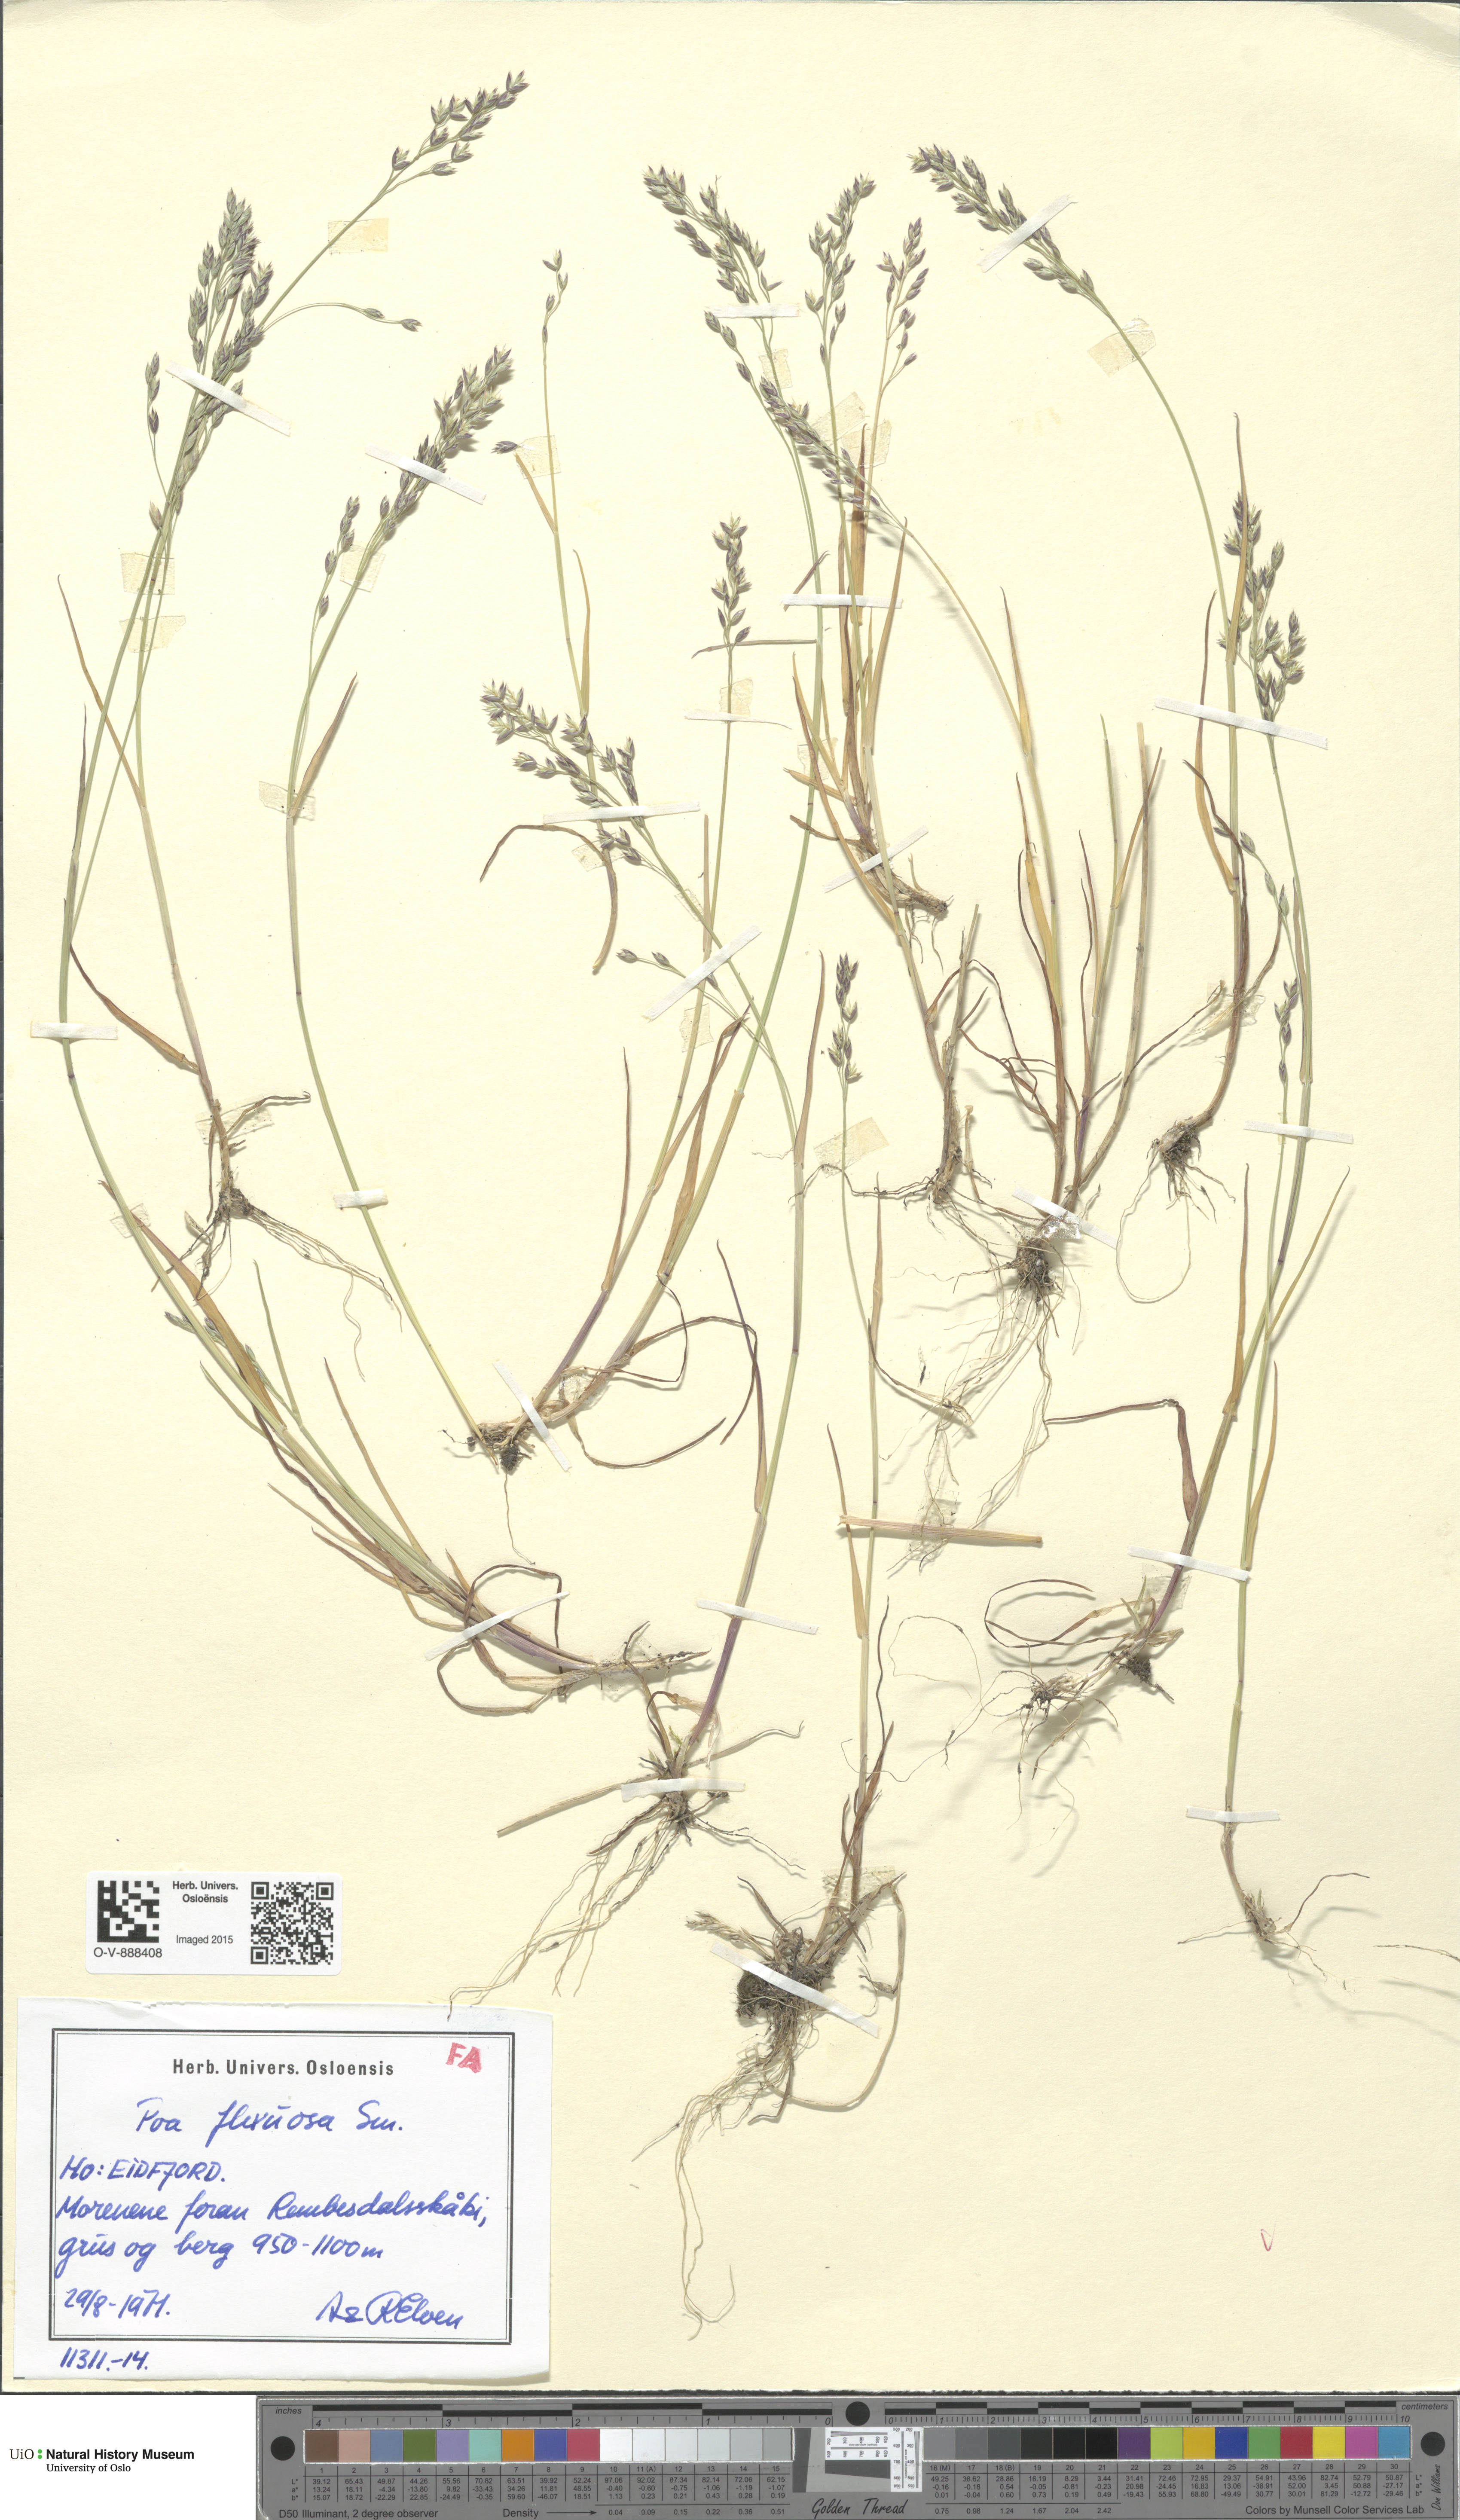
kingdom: Plantae
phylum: Tracheophyta
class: Liliopsida
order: Poales
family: Poaceae
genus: Poa
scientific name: Poa flexuosa
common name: Wavy meadow-grass
